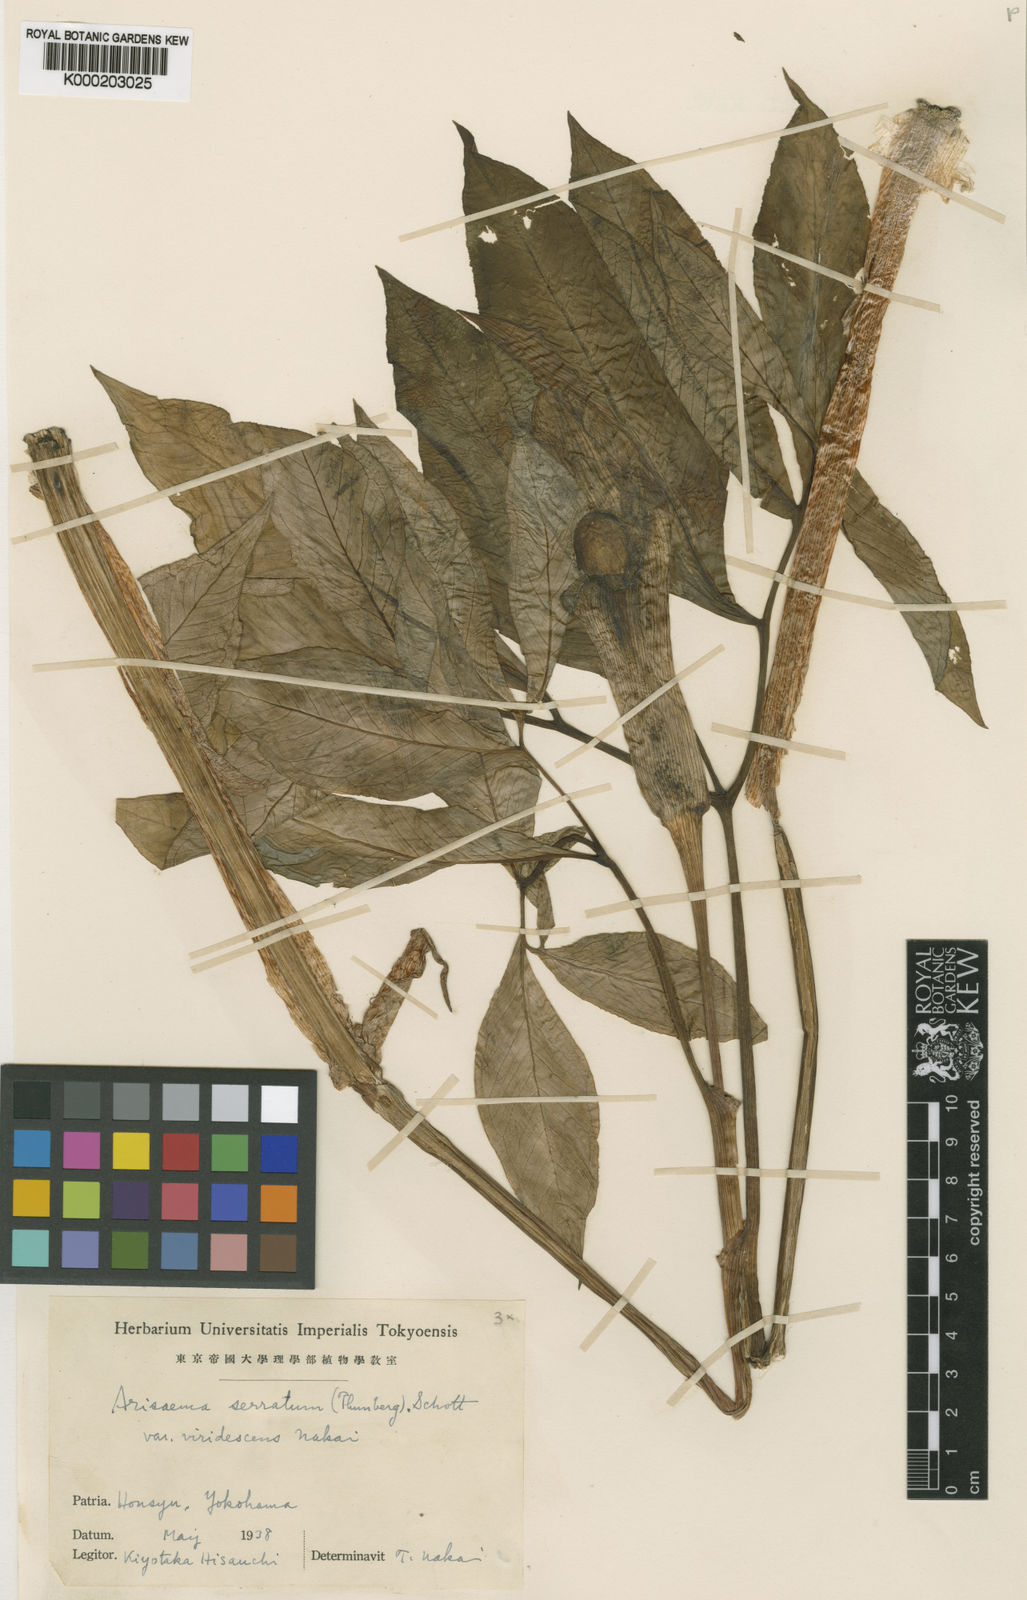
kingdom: Plantae
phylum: Tracheophyta
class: Liliopsida
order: Alismatales
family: Araceae
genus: Arisaema
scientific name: Arisaema serratum
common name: Japanese arisaema
